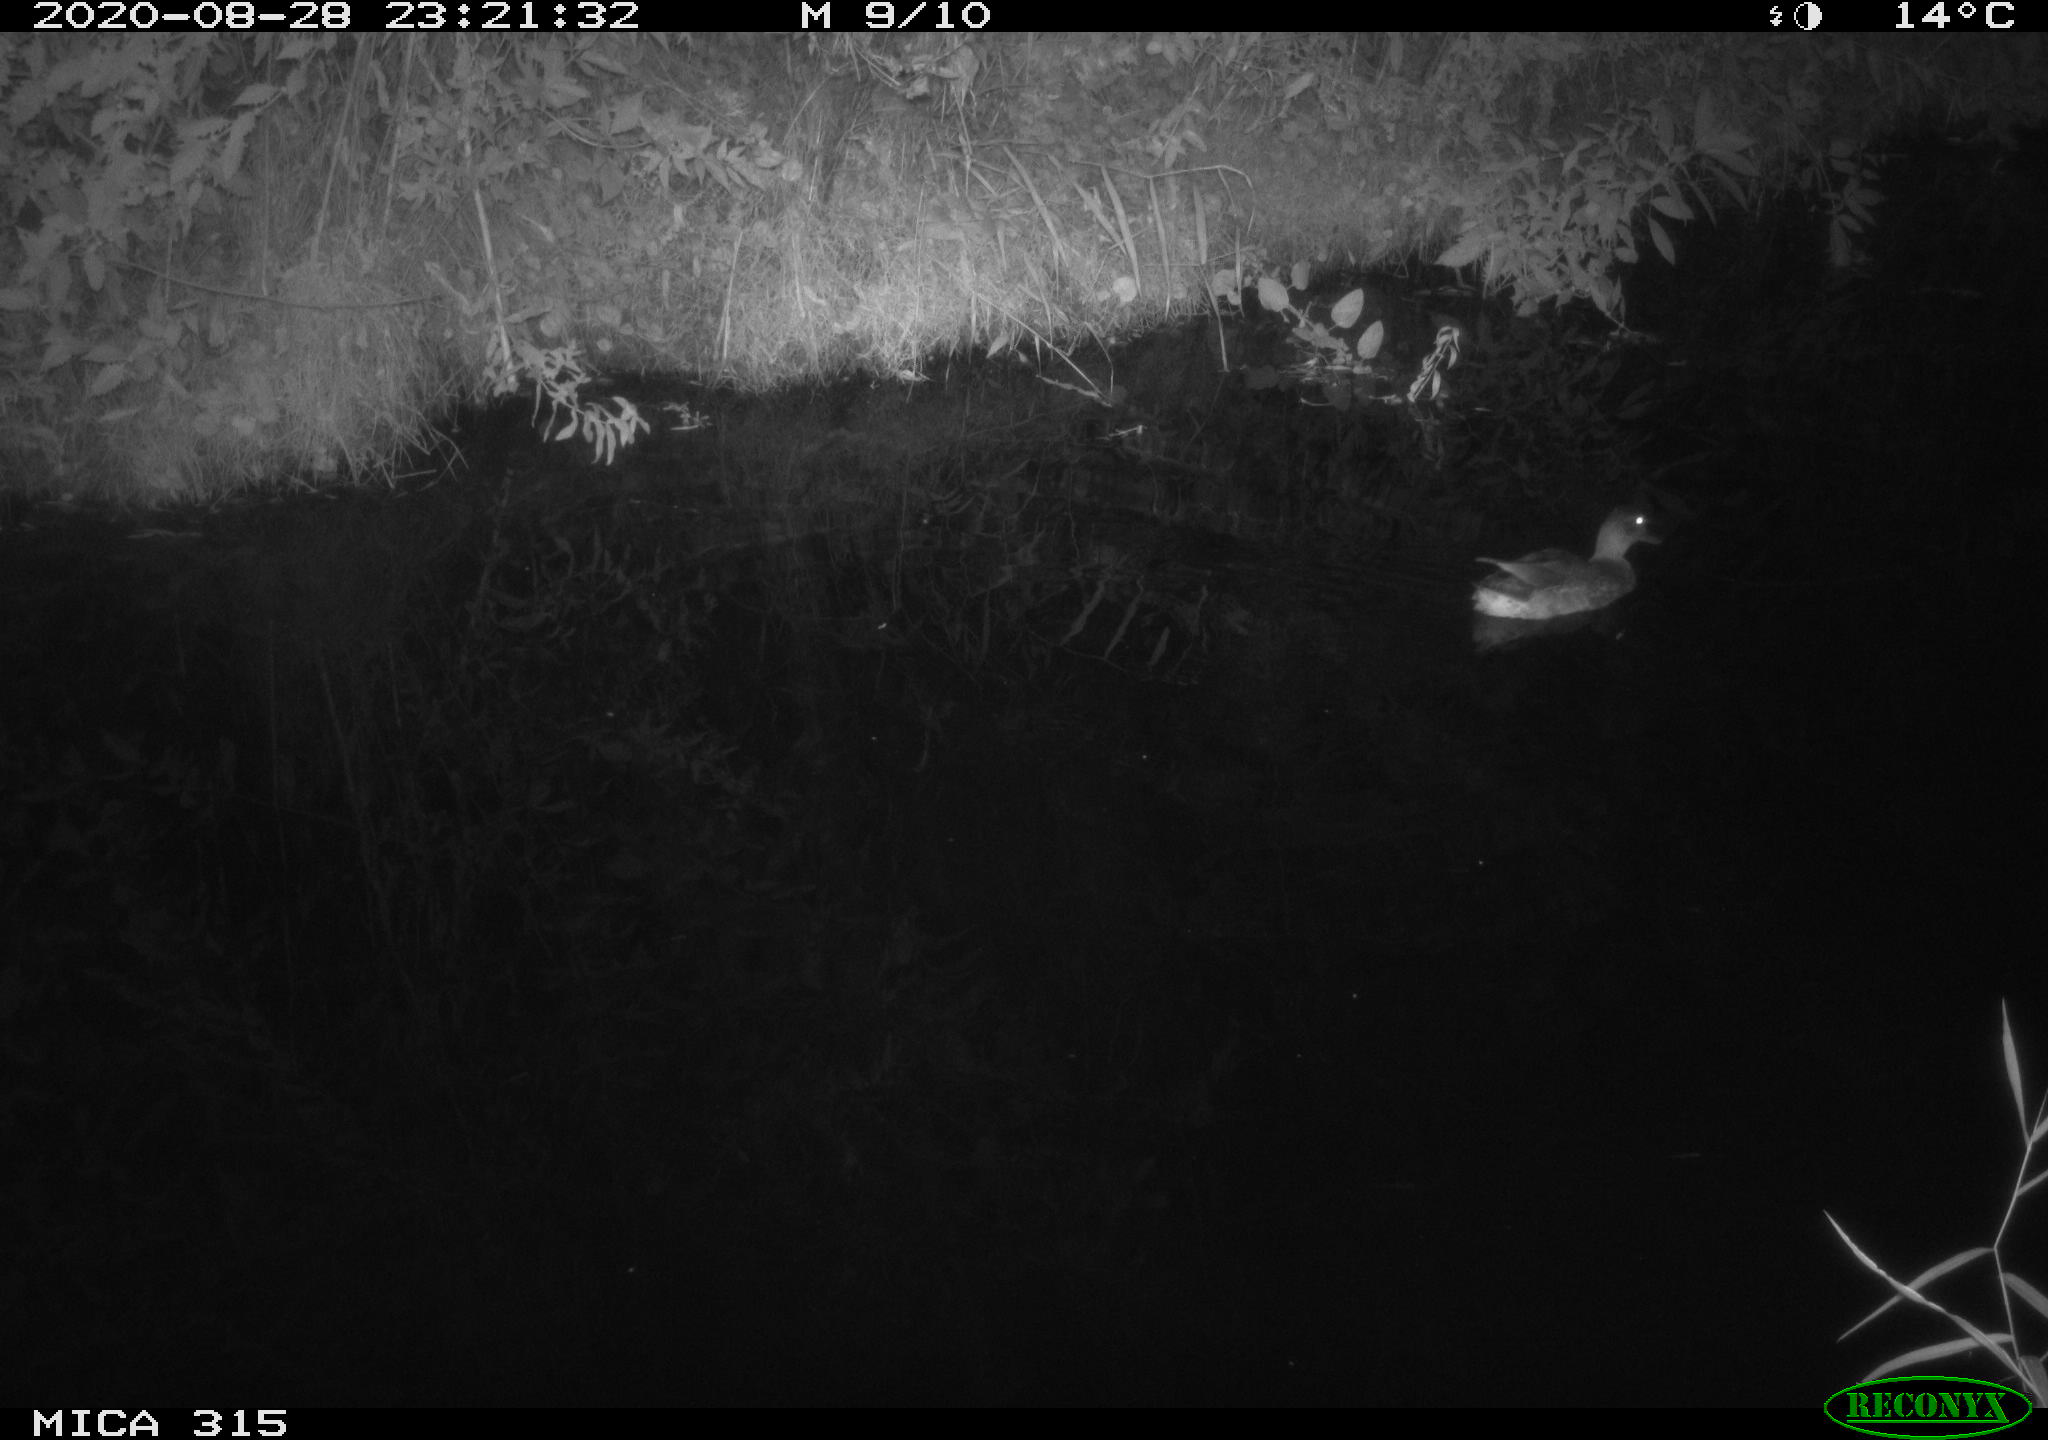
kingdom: Animalia
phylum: Chordata
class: Aves
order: Anseriformes
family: Anatidae
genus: Anas
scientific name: Anas platyrhynchos
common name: Mallard
